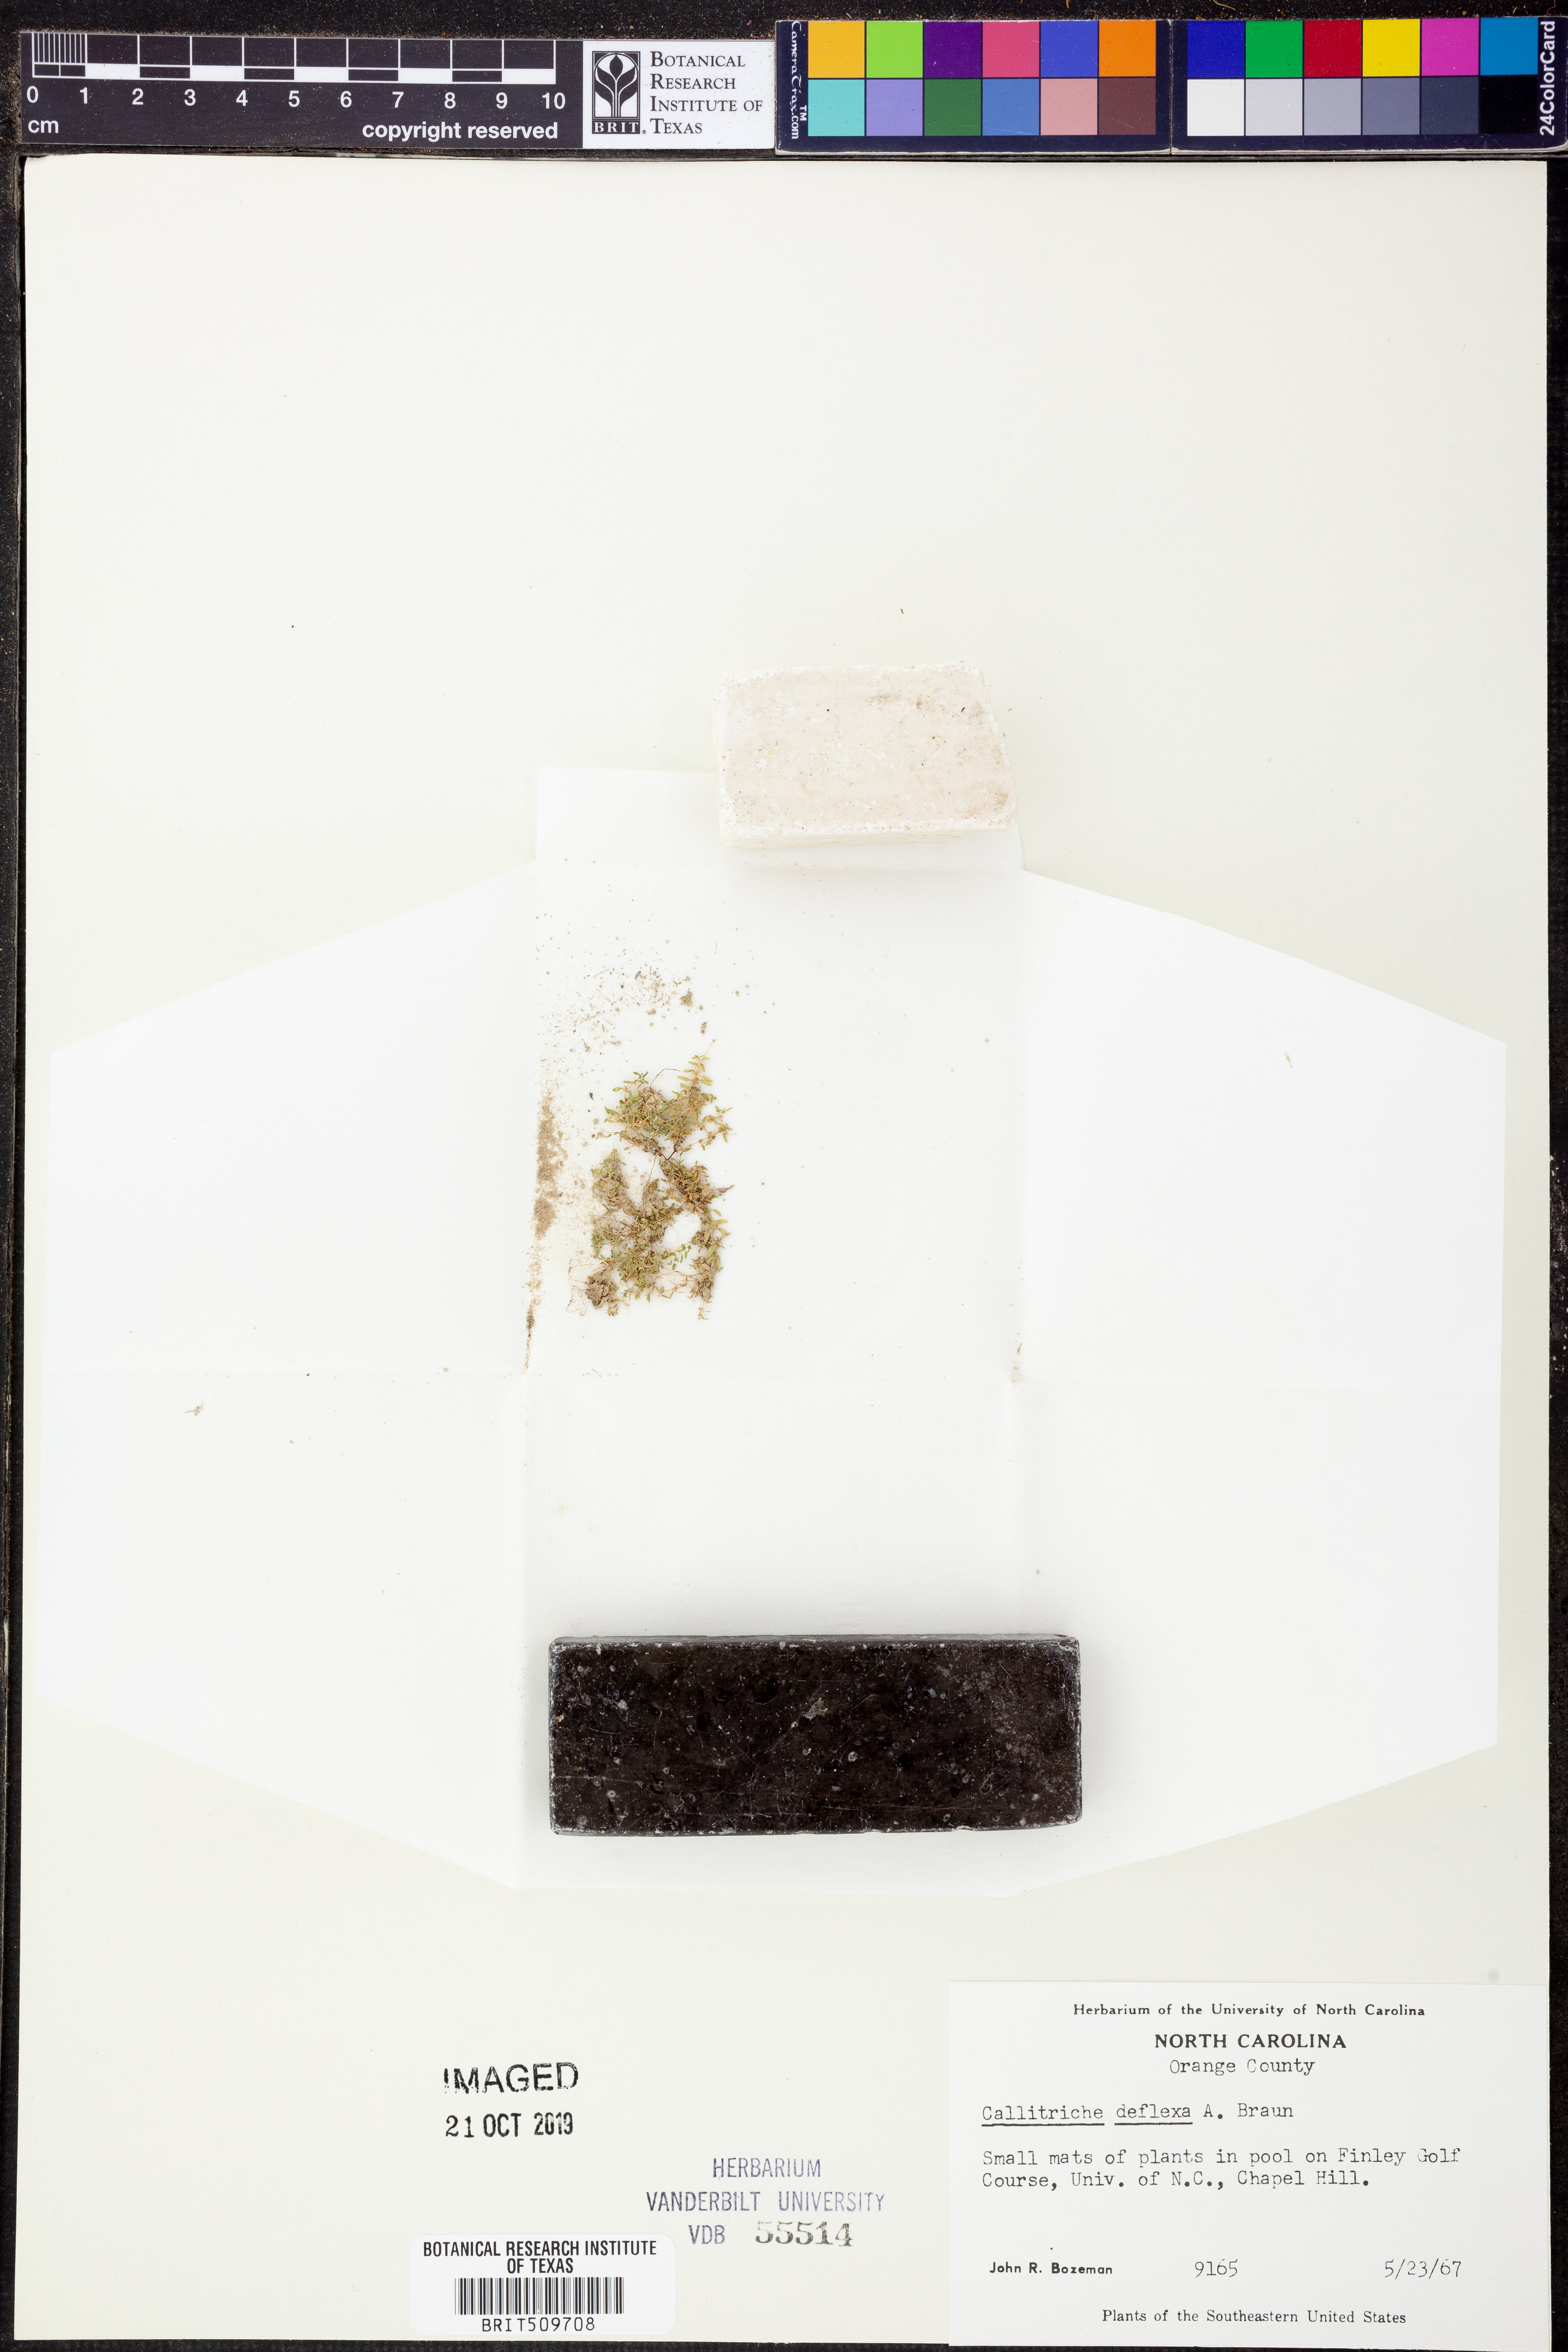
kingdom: Plantae
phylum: Tracheophyta
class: Magnoliopsida
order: Lamiales
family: Plantaginaceae
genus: Callitriche
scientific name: Callitriche deflexa
